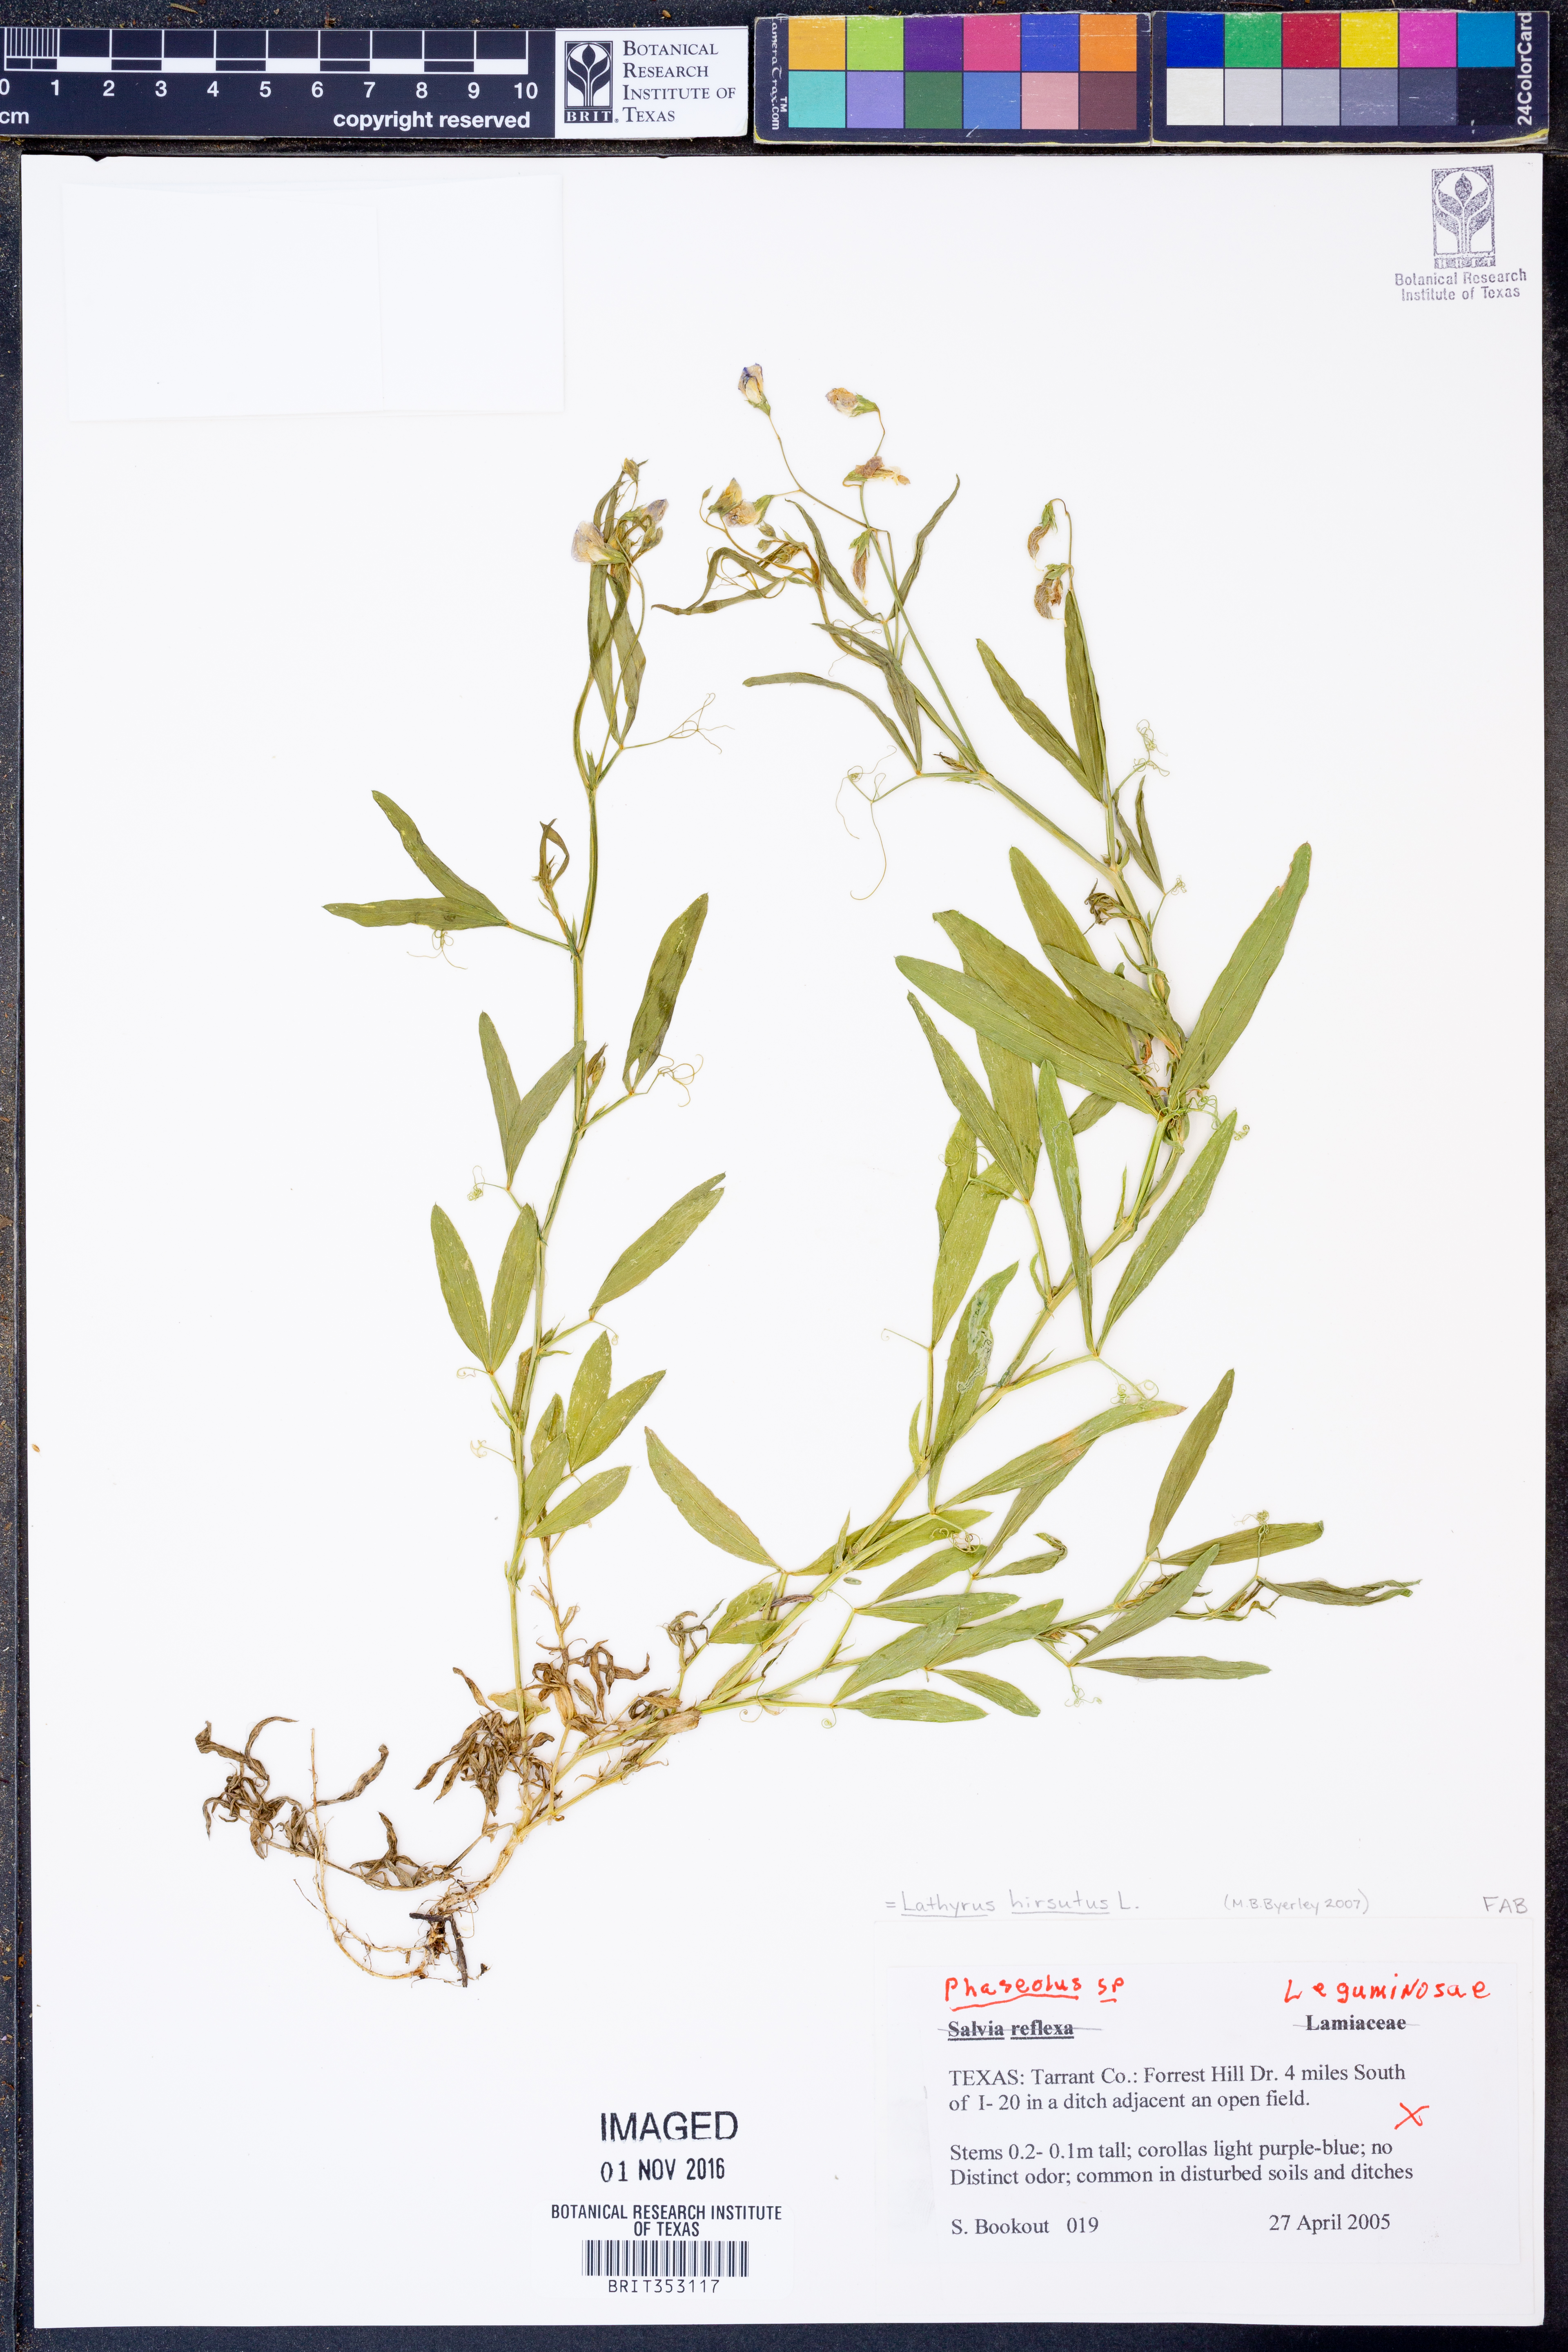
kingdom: Plantae
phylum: Tracheophyta
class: Magnoliopsida
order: Fabales
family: Fabaceae
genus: Lathyrus
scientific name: Lathyrus hirsutus
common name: Hairy vetchling
